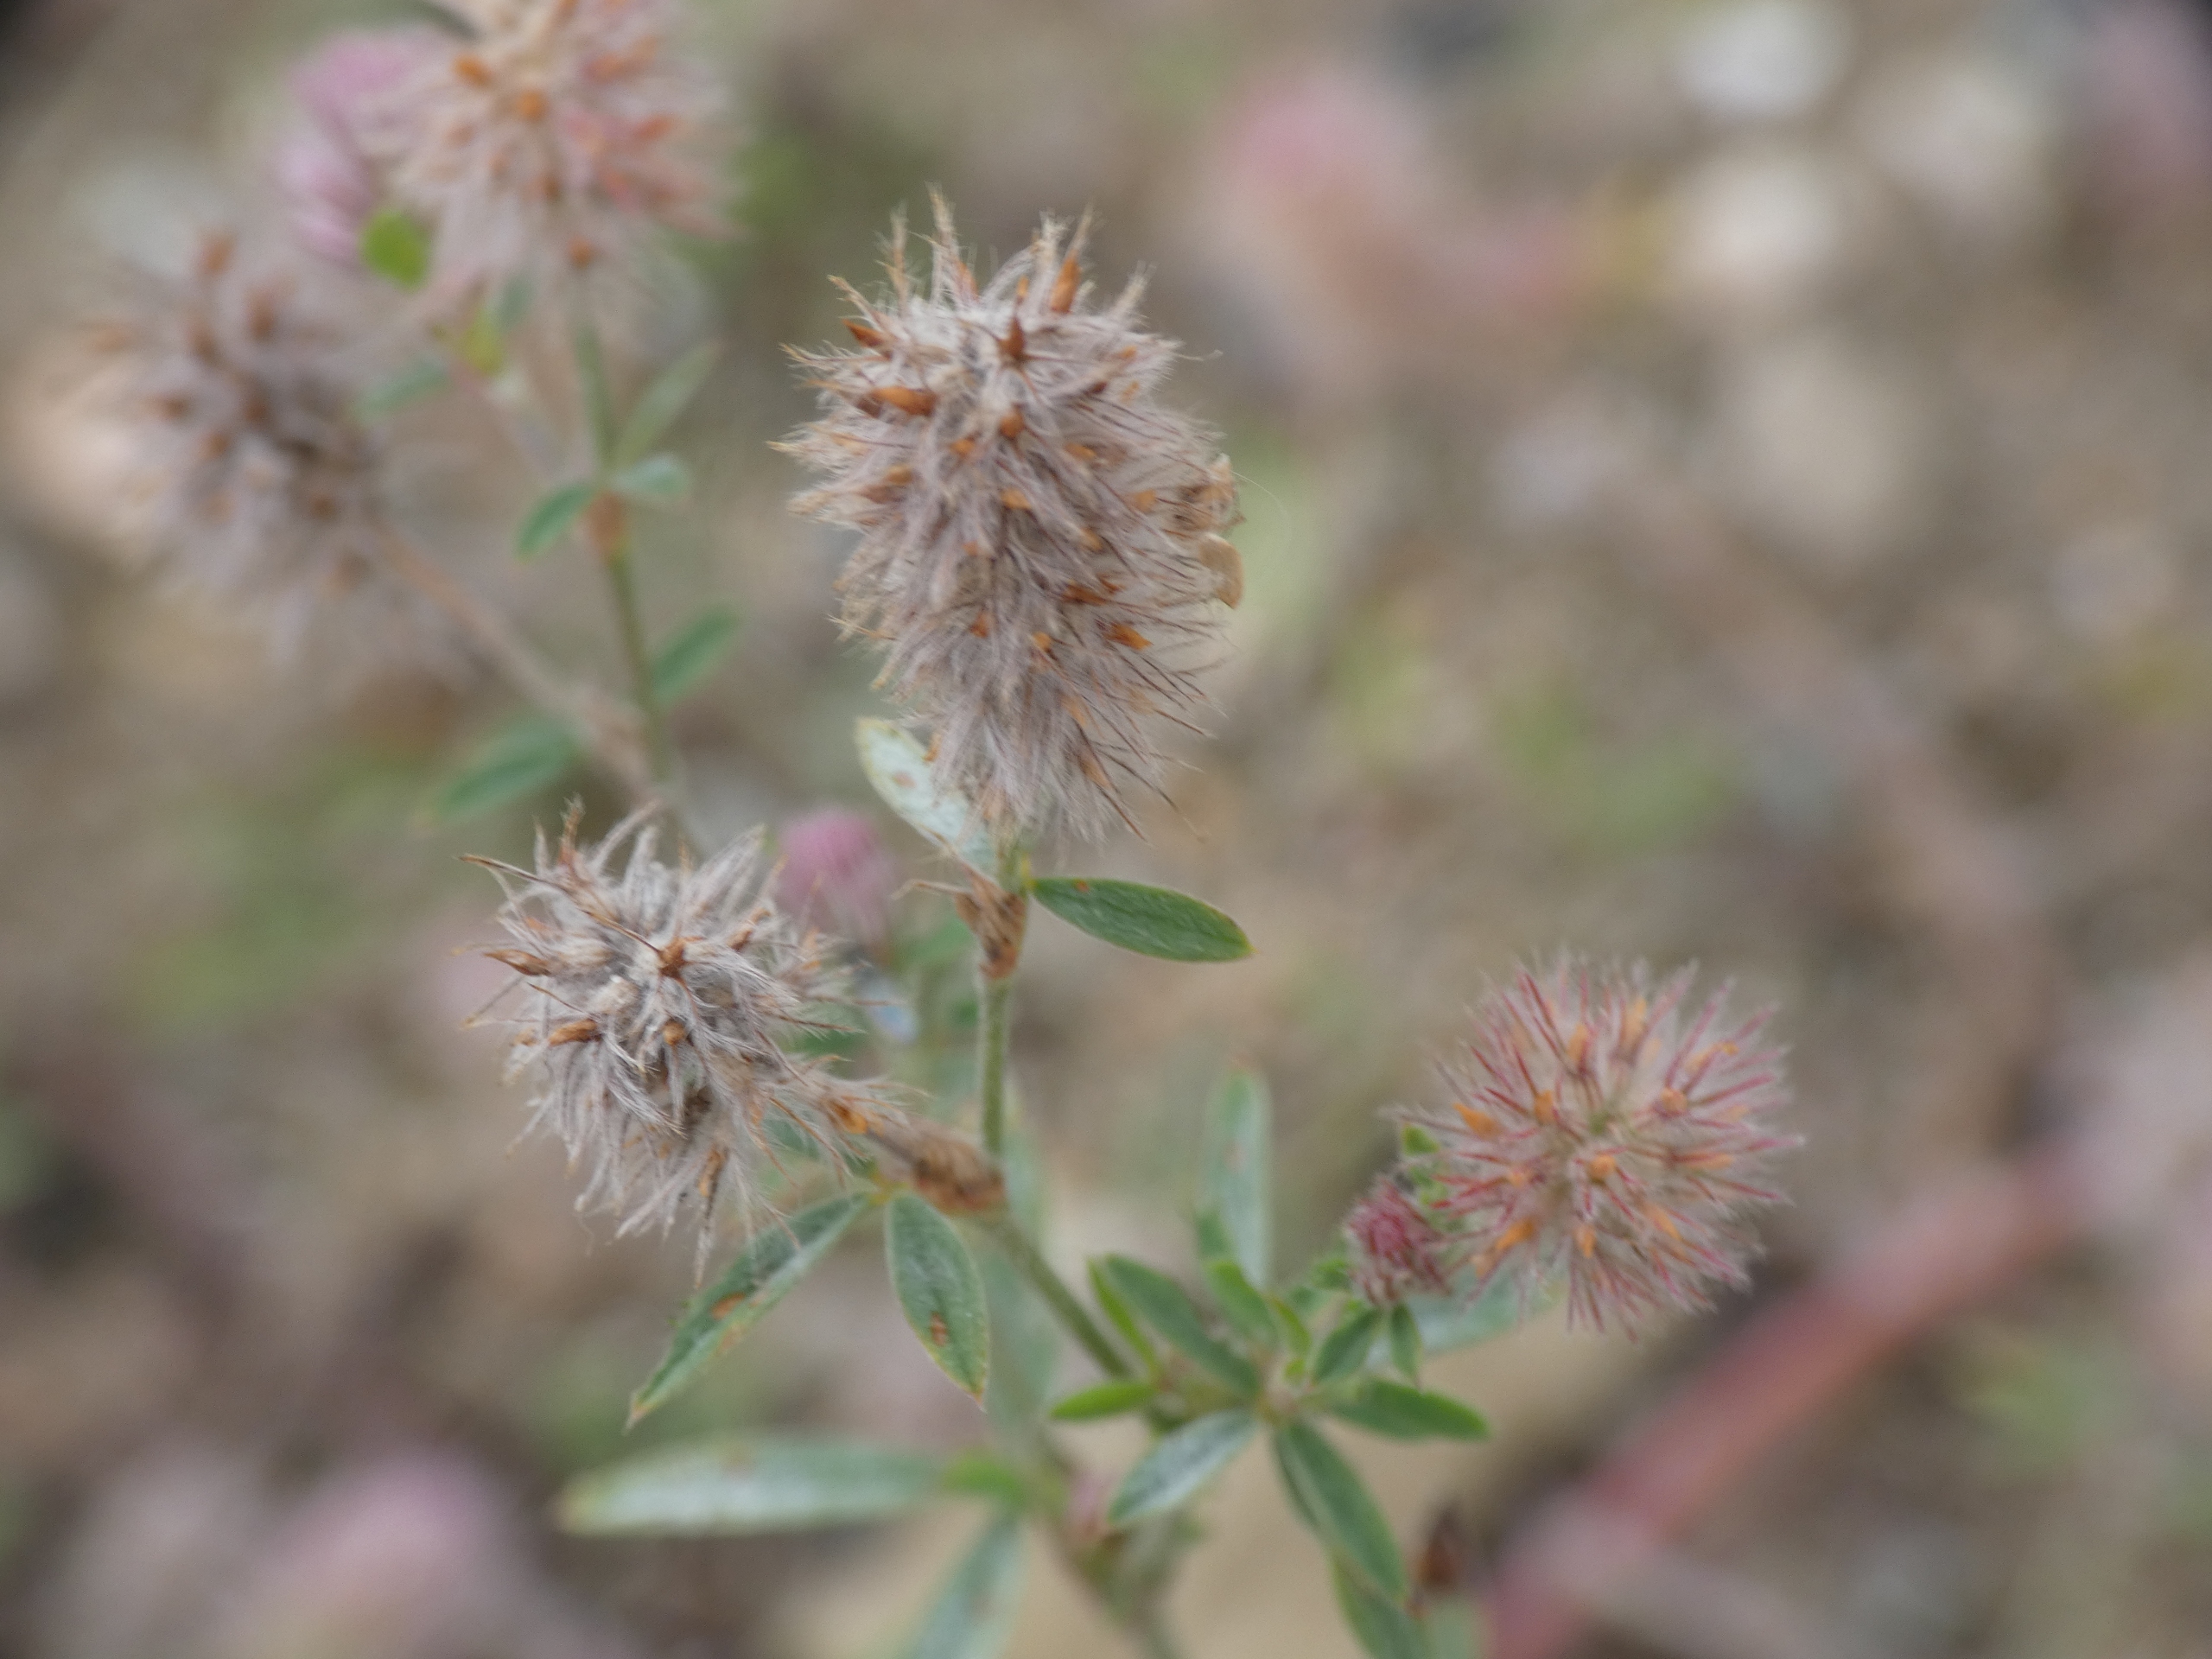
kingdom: Plantae
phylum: Tracheophyta
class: Magnoliopsida
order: Fabales
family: Fabaceae
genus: Trifolium
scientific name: Trifolium arvense
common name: Hare-kløver
